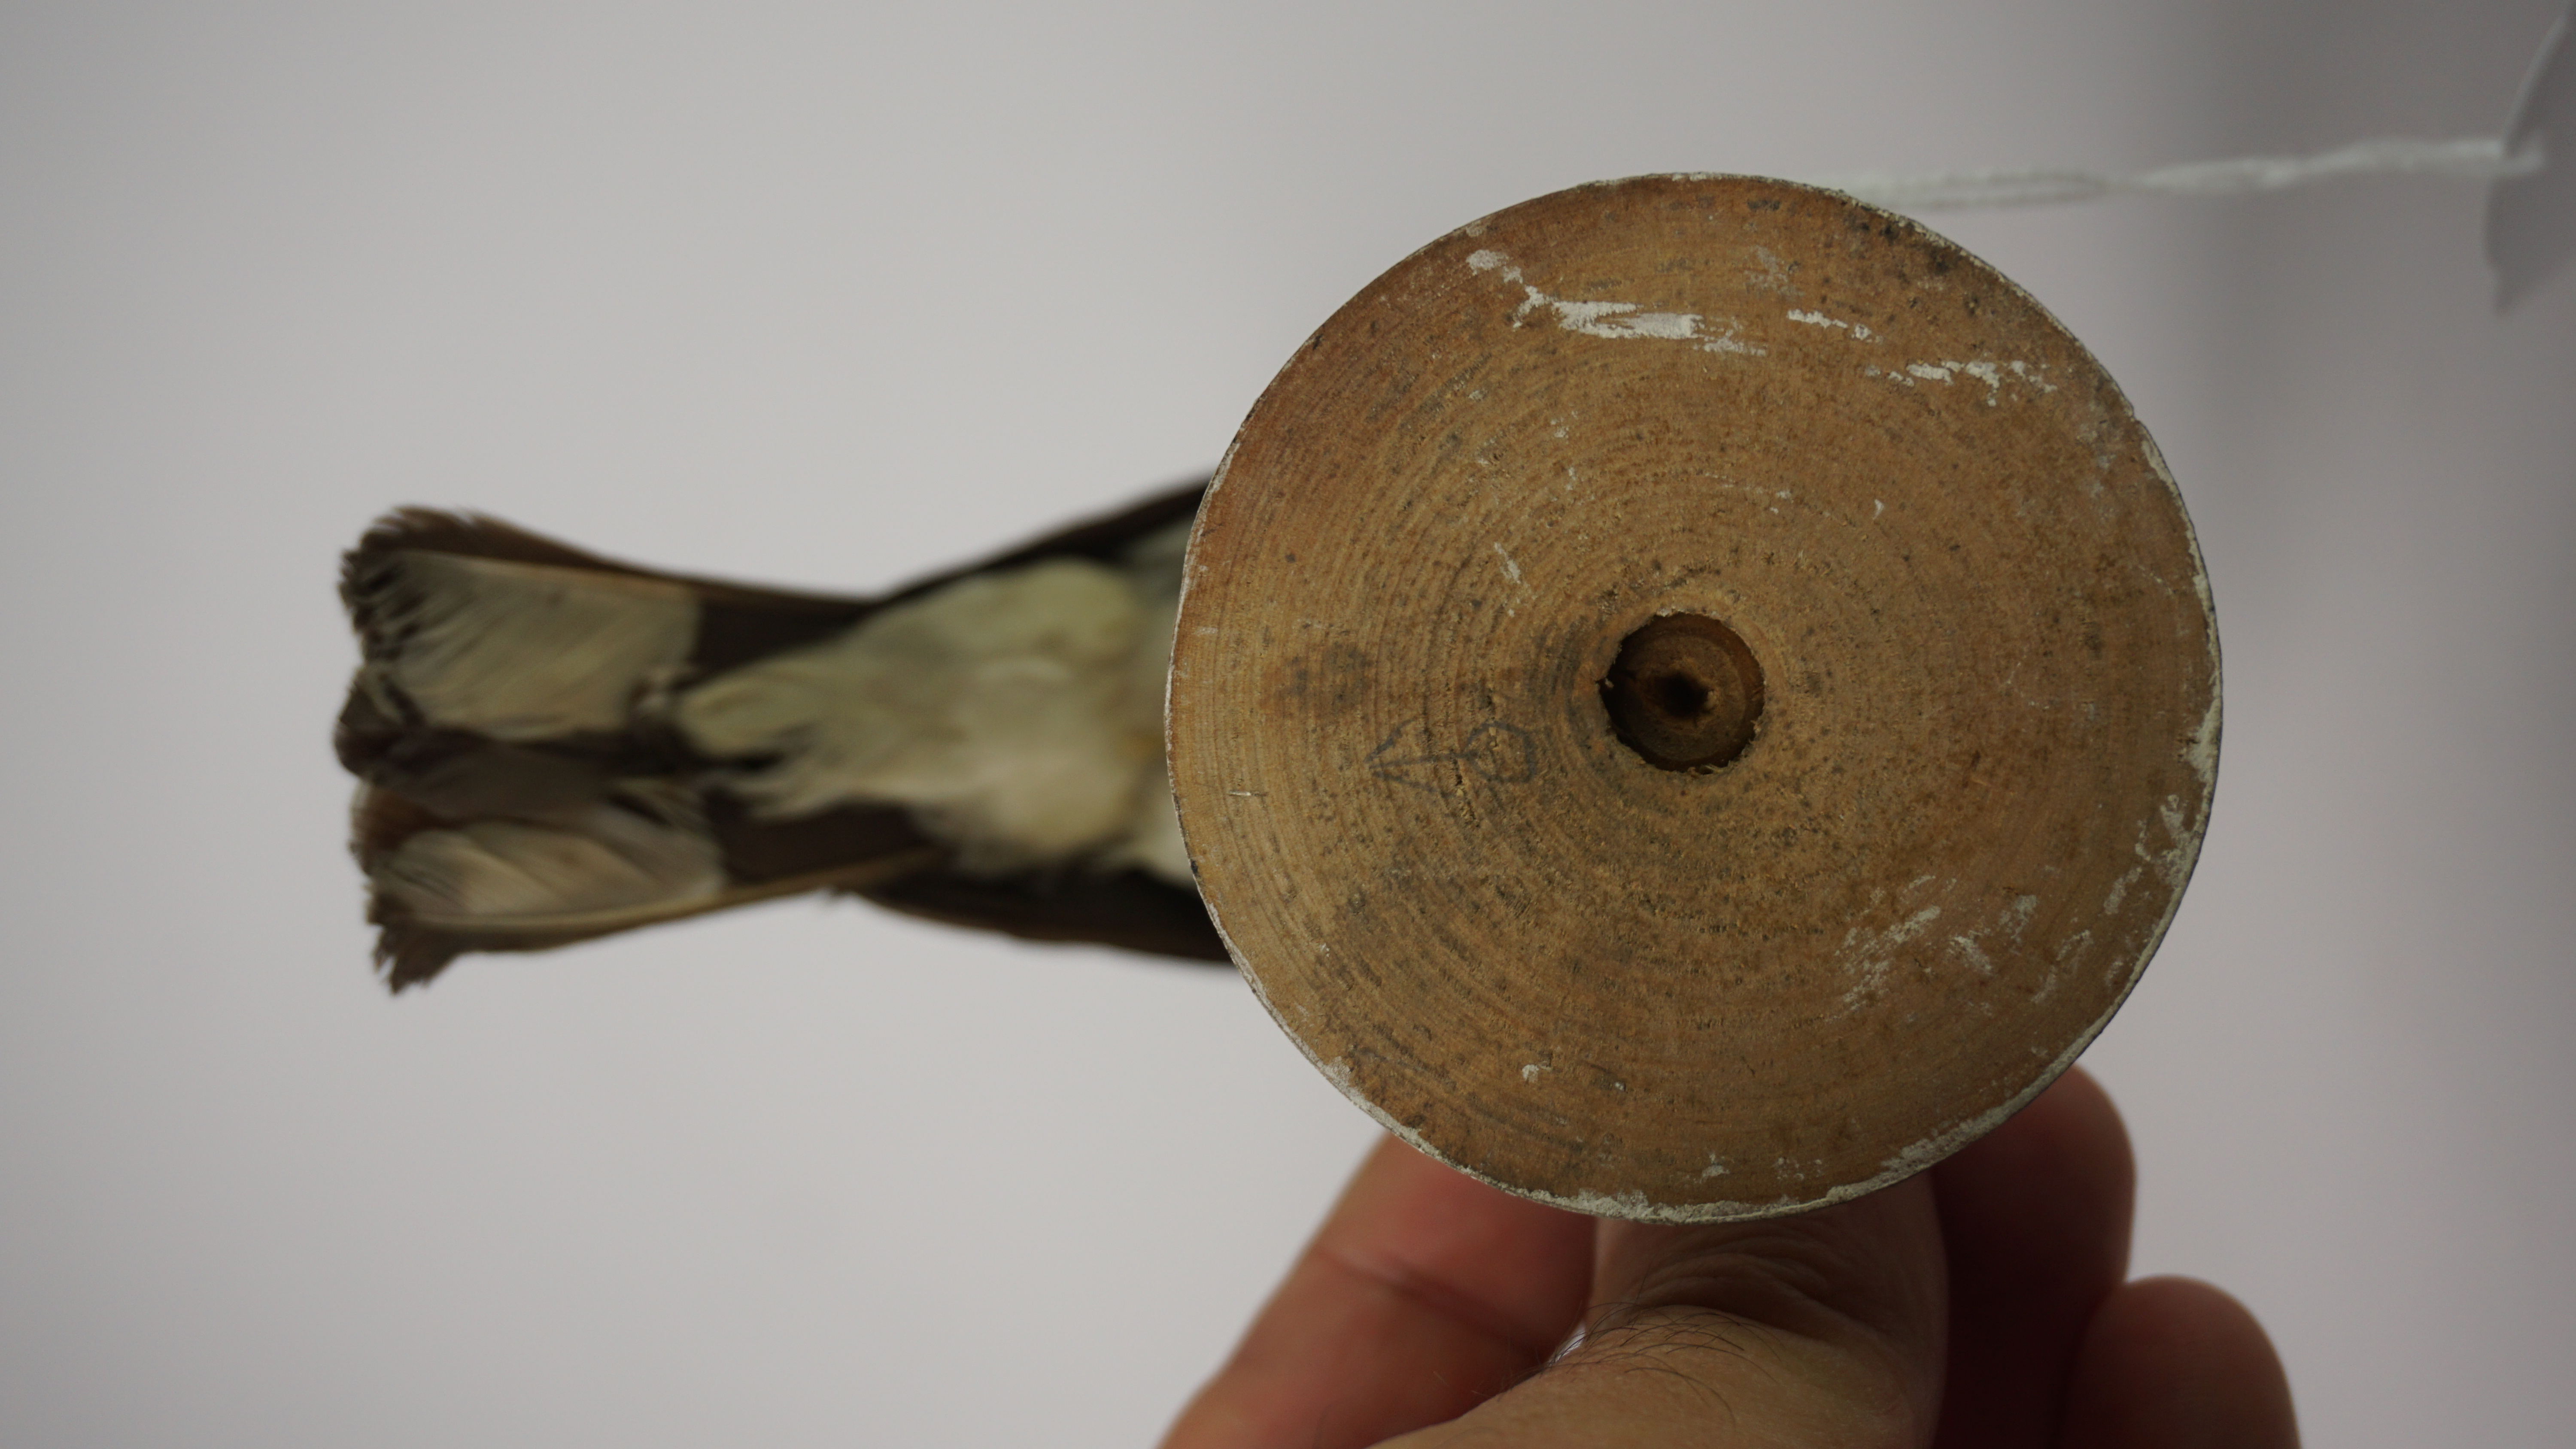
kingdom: Animalia
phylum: Chordata
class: Aves
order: Passeriformes
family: Cardinalidae
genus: Pheucticus
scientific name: Pheucticus ludovicianus
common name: Rose-breasted grosbeak
